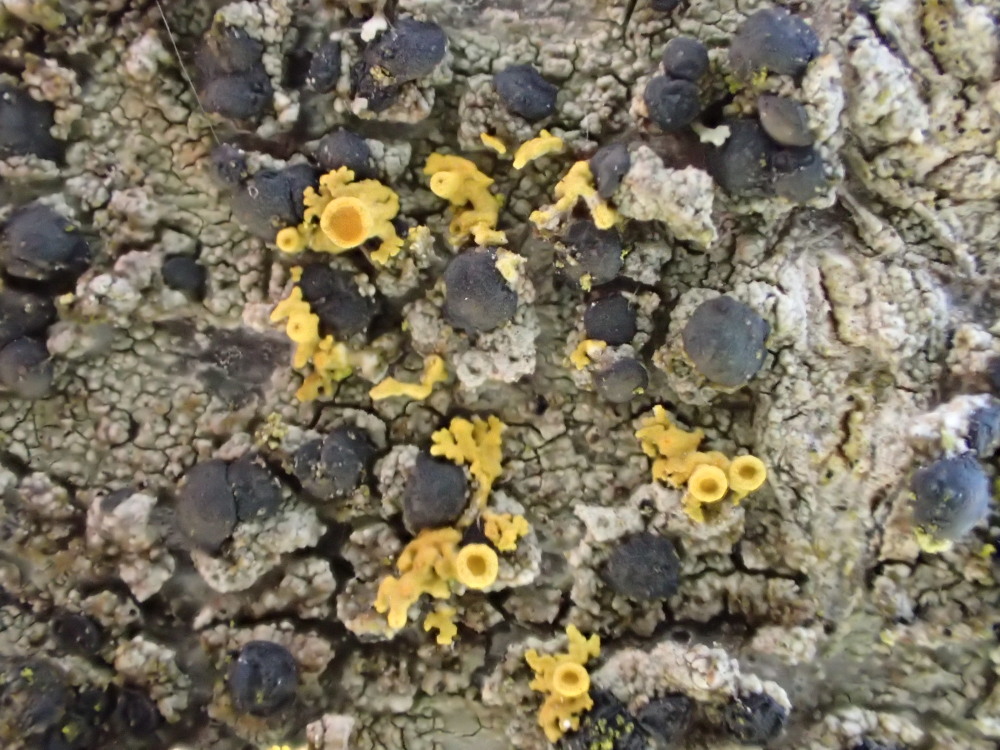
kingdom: Fungi
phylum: Ascomycota
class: Lecanoromycetes
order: Teloschistales
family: Teloschistaceae
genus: Polycauliona
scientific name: Polycauliona polycarpa
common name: mangefrugtet orangelav
